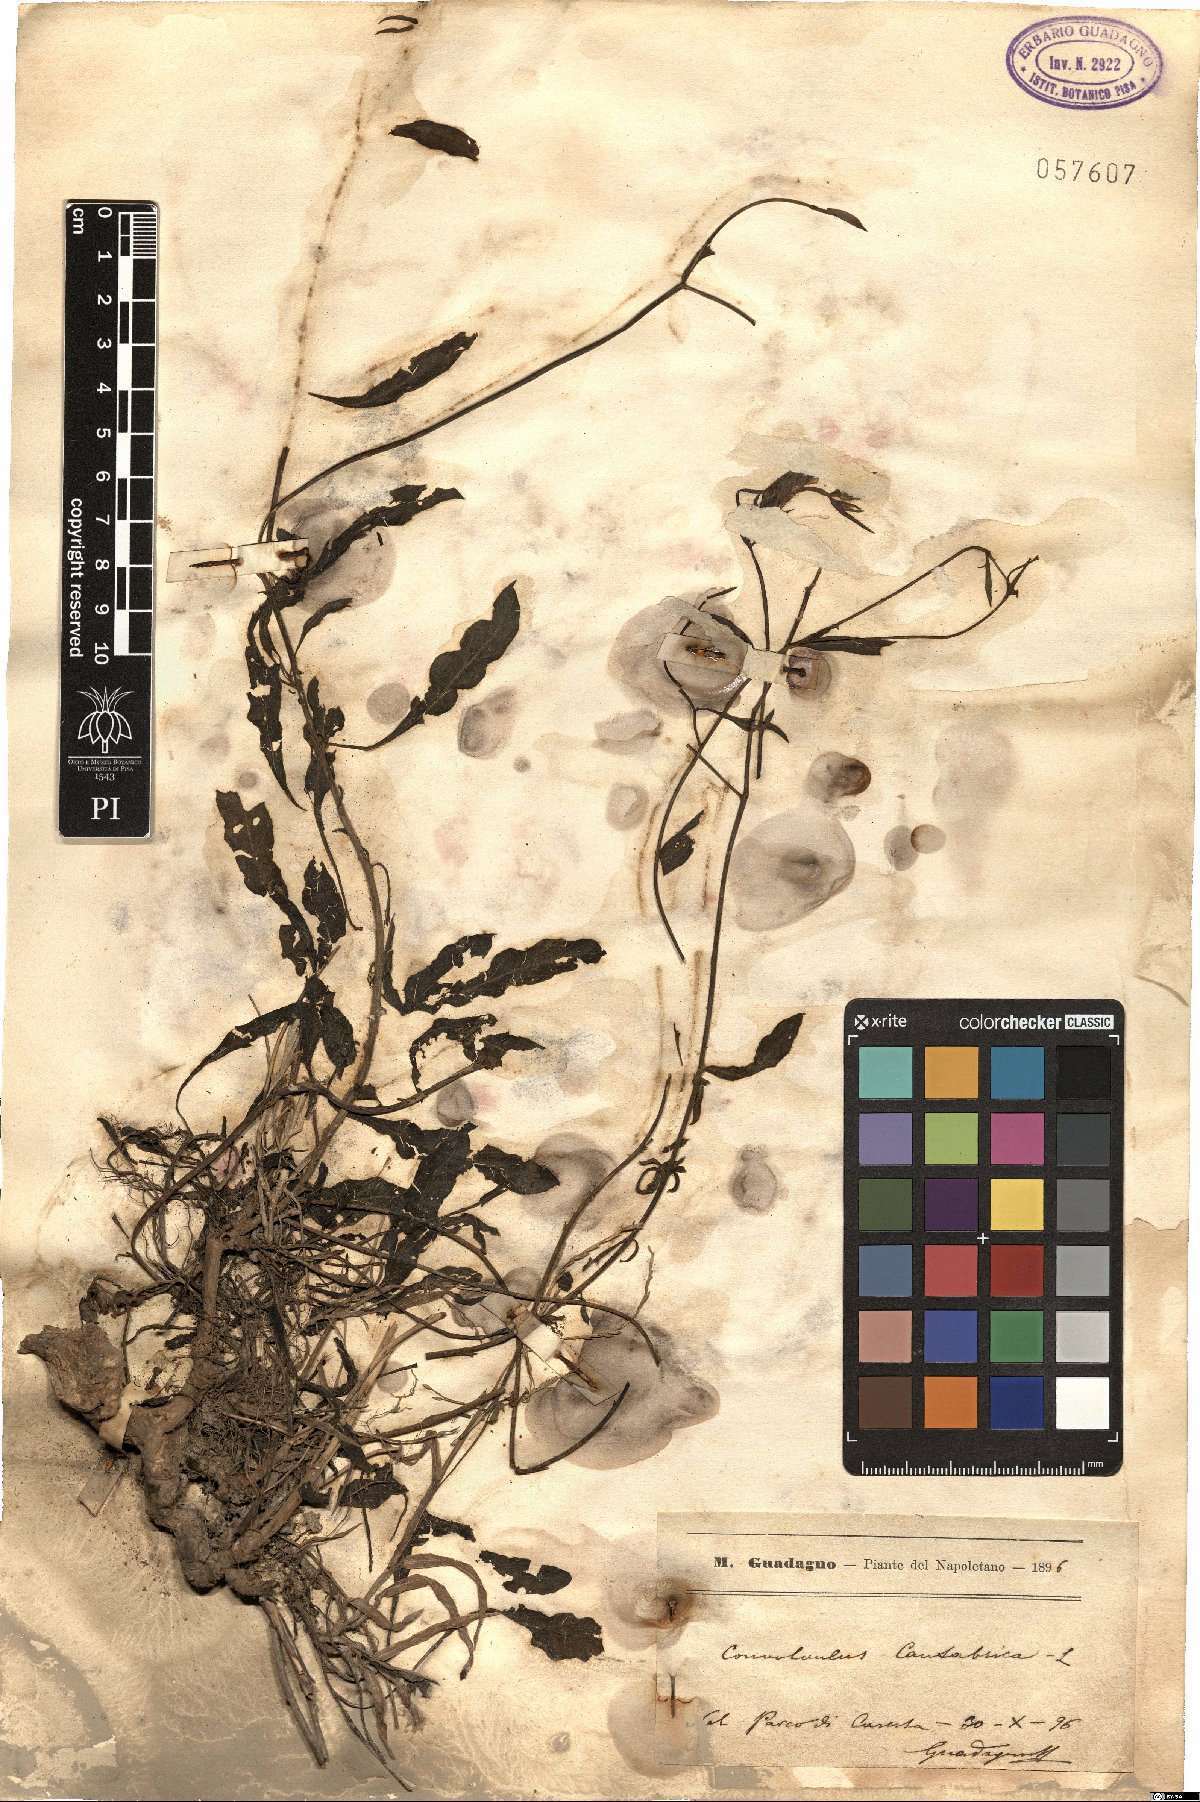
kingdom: Plantae
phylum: Tracheophyta
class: Magnoliopsida
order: Solanales
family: Convolvulaceae
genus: Convolvulus
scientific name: Convolvulus cantabrica
